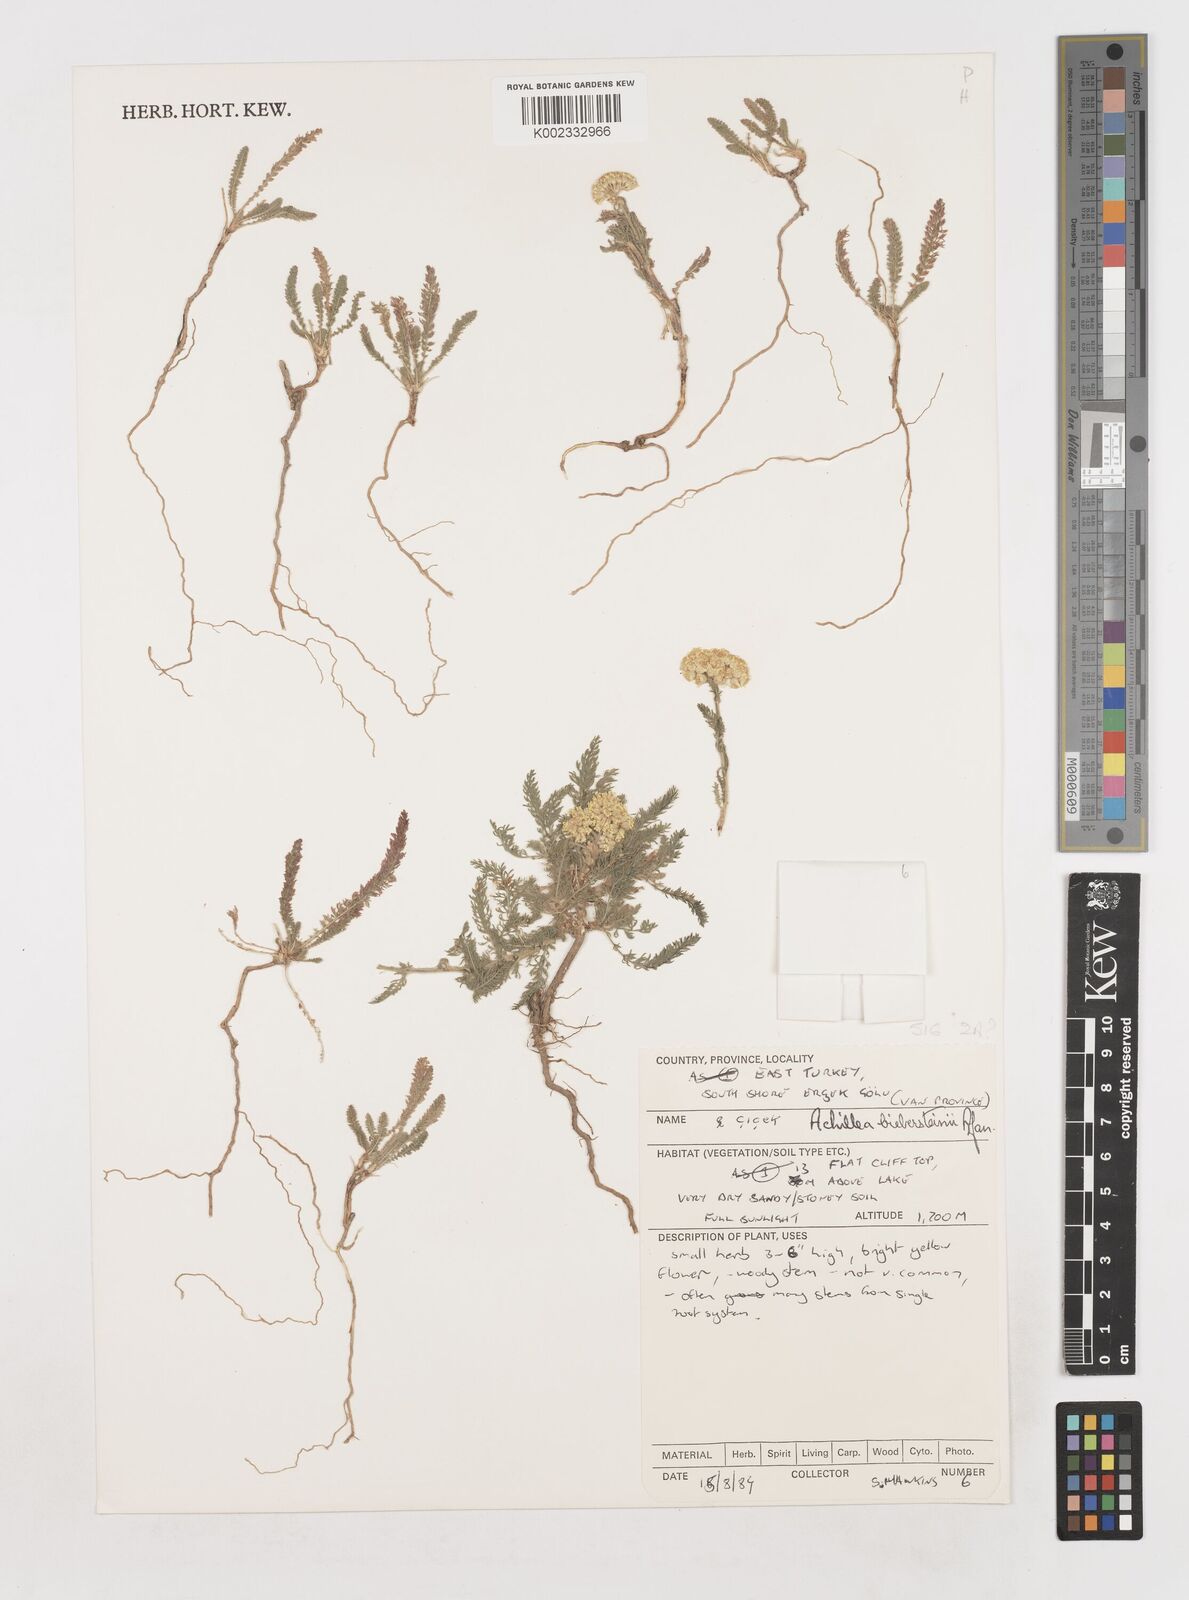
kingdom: Plantae
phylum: Tracheophyta
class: Magnoliopsida
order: Asterales
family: Asteraceae
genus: Achillea
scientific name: Achillea arabica
